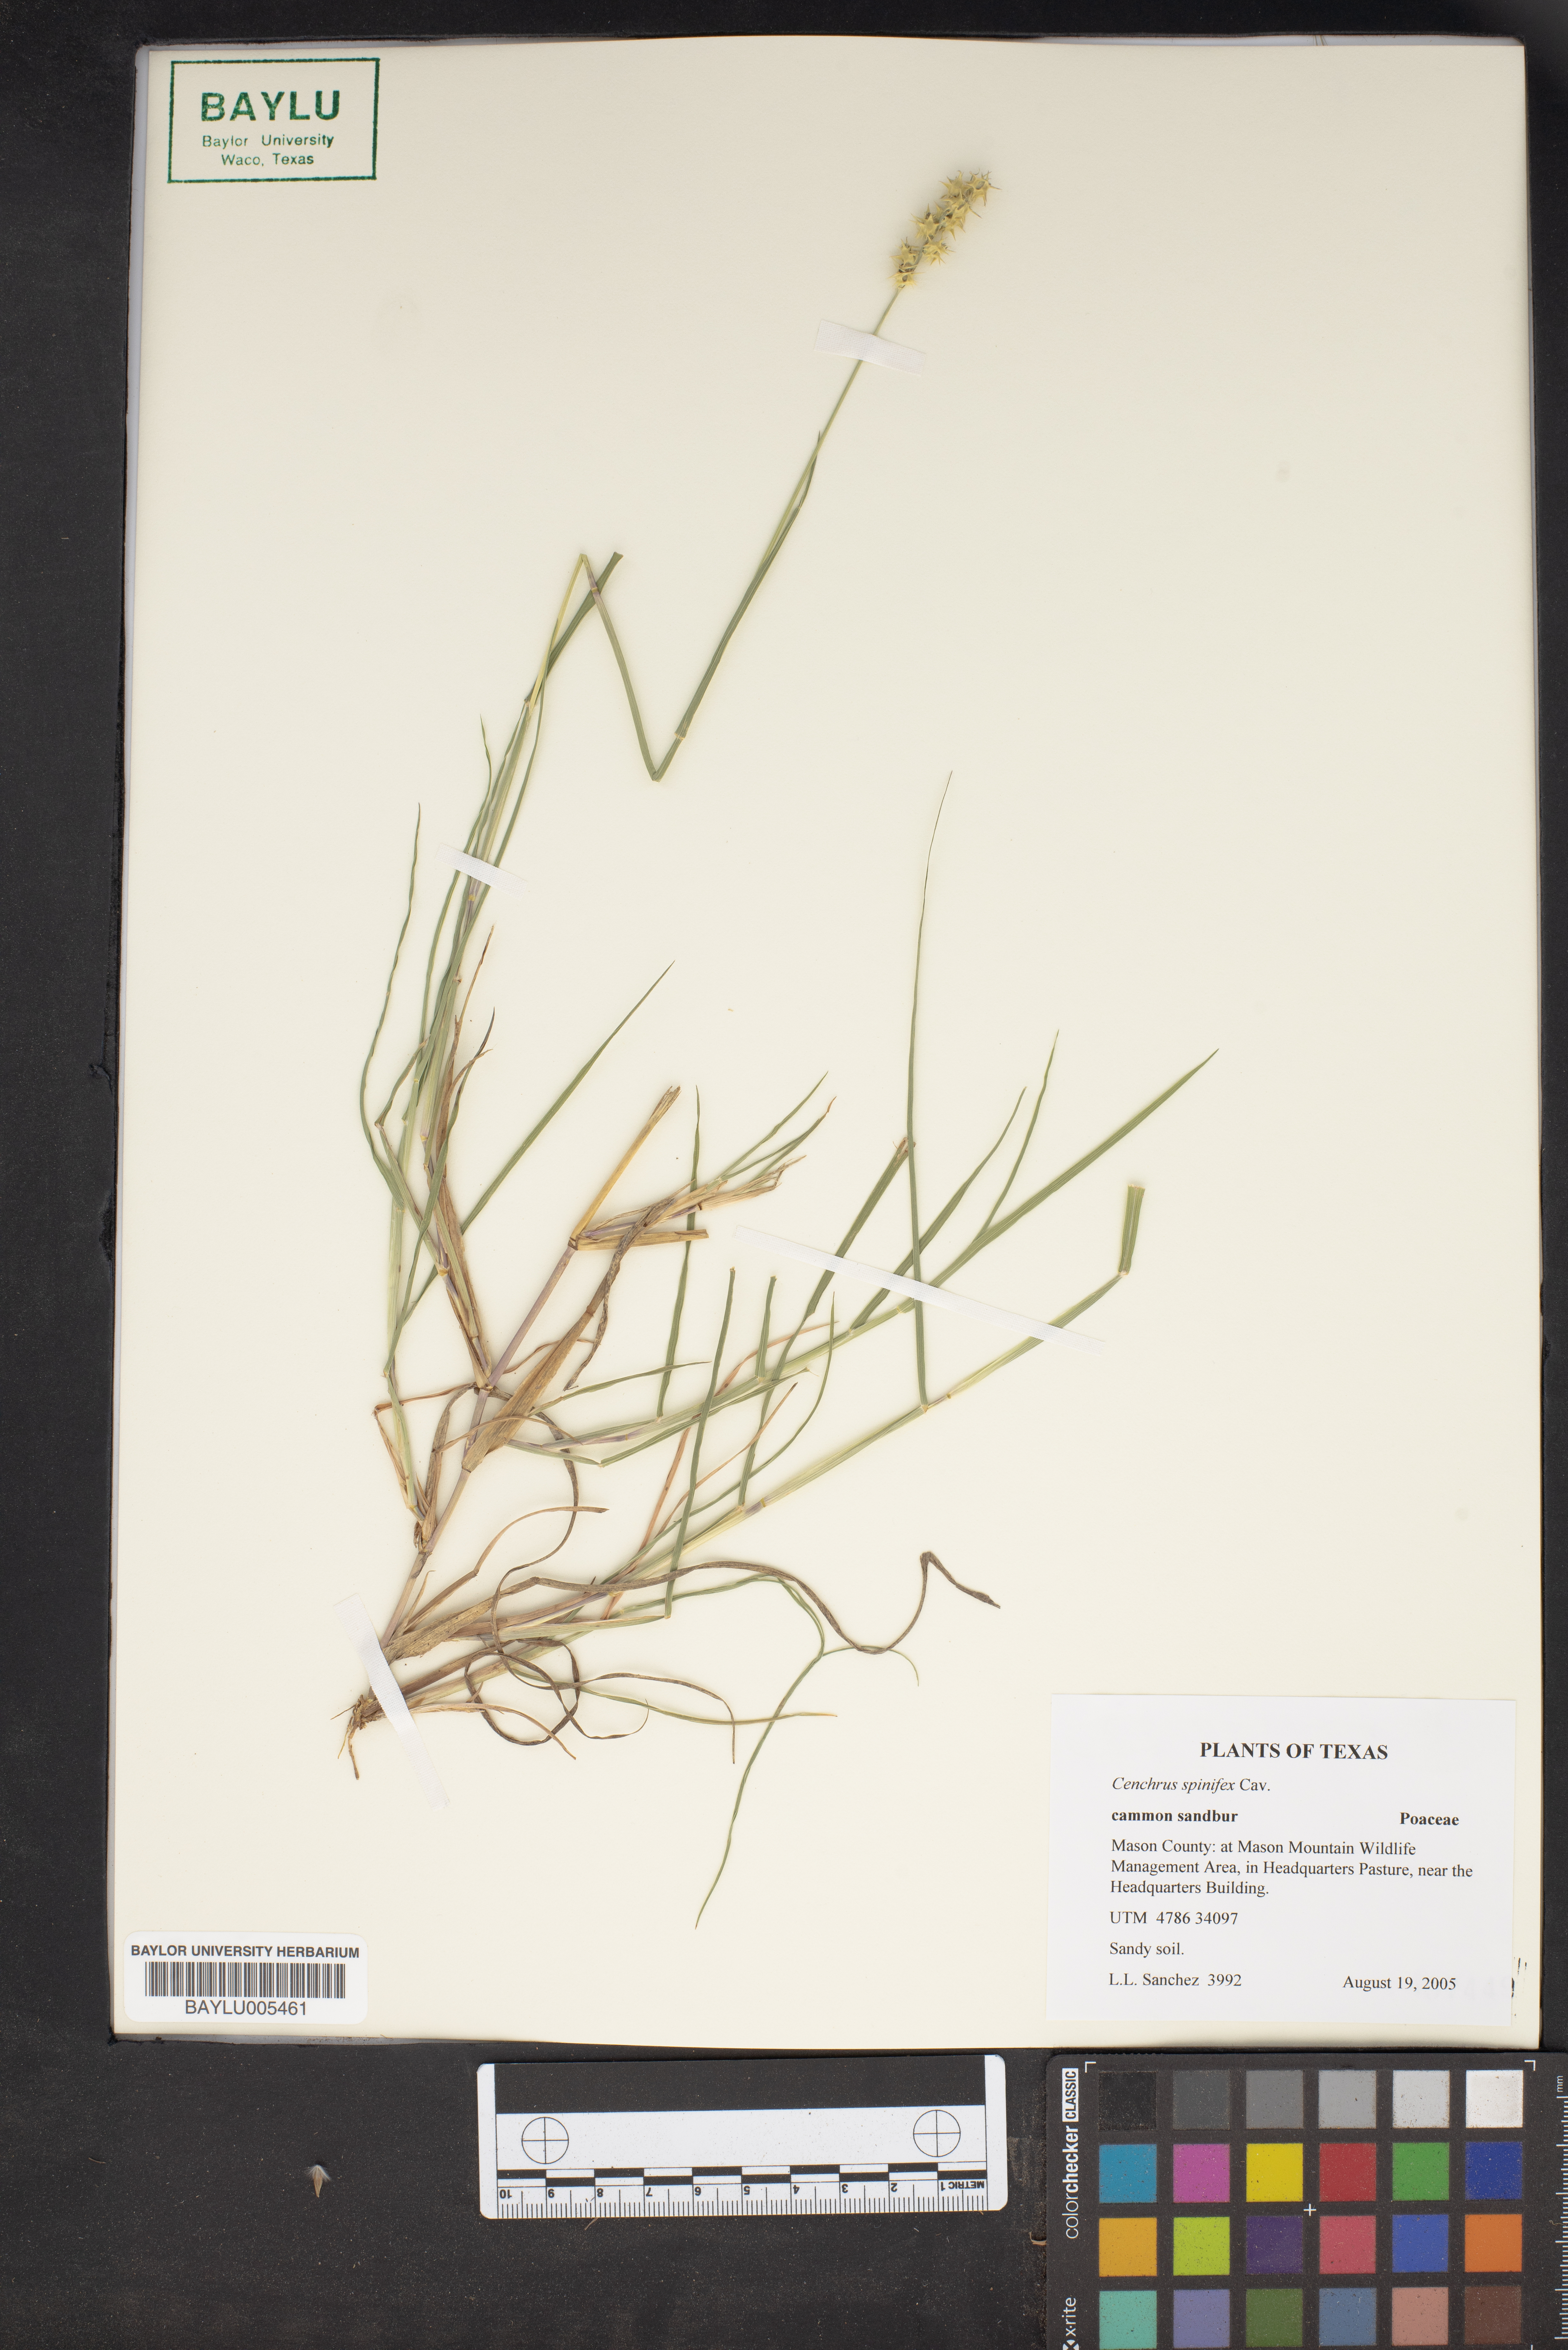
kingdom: Plantae
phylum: Tracheophyta
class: Liliopsida
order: Poales
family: Poaceae
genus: Cenchrus
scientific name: Cenchrus spinifex
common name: Coast sandbur
